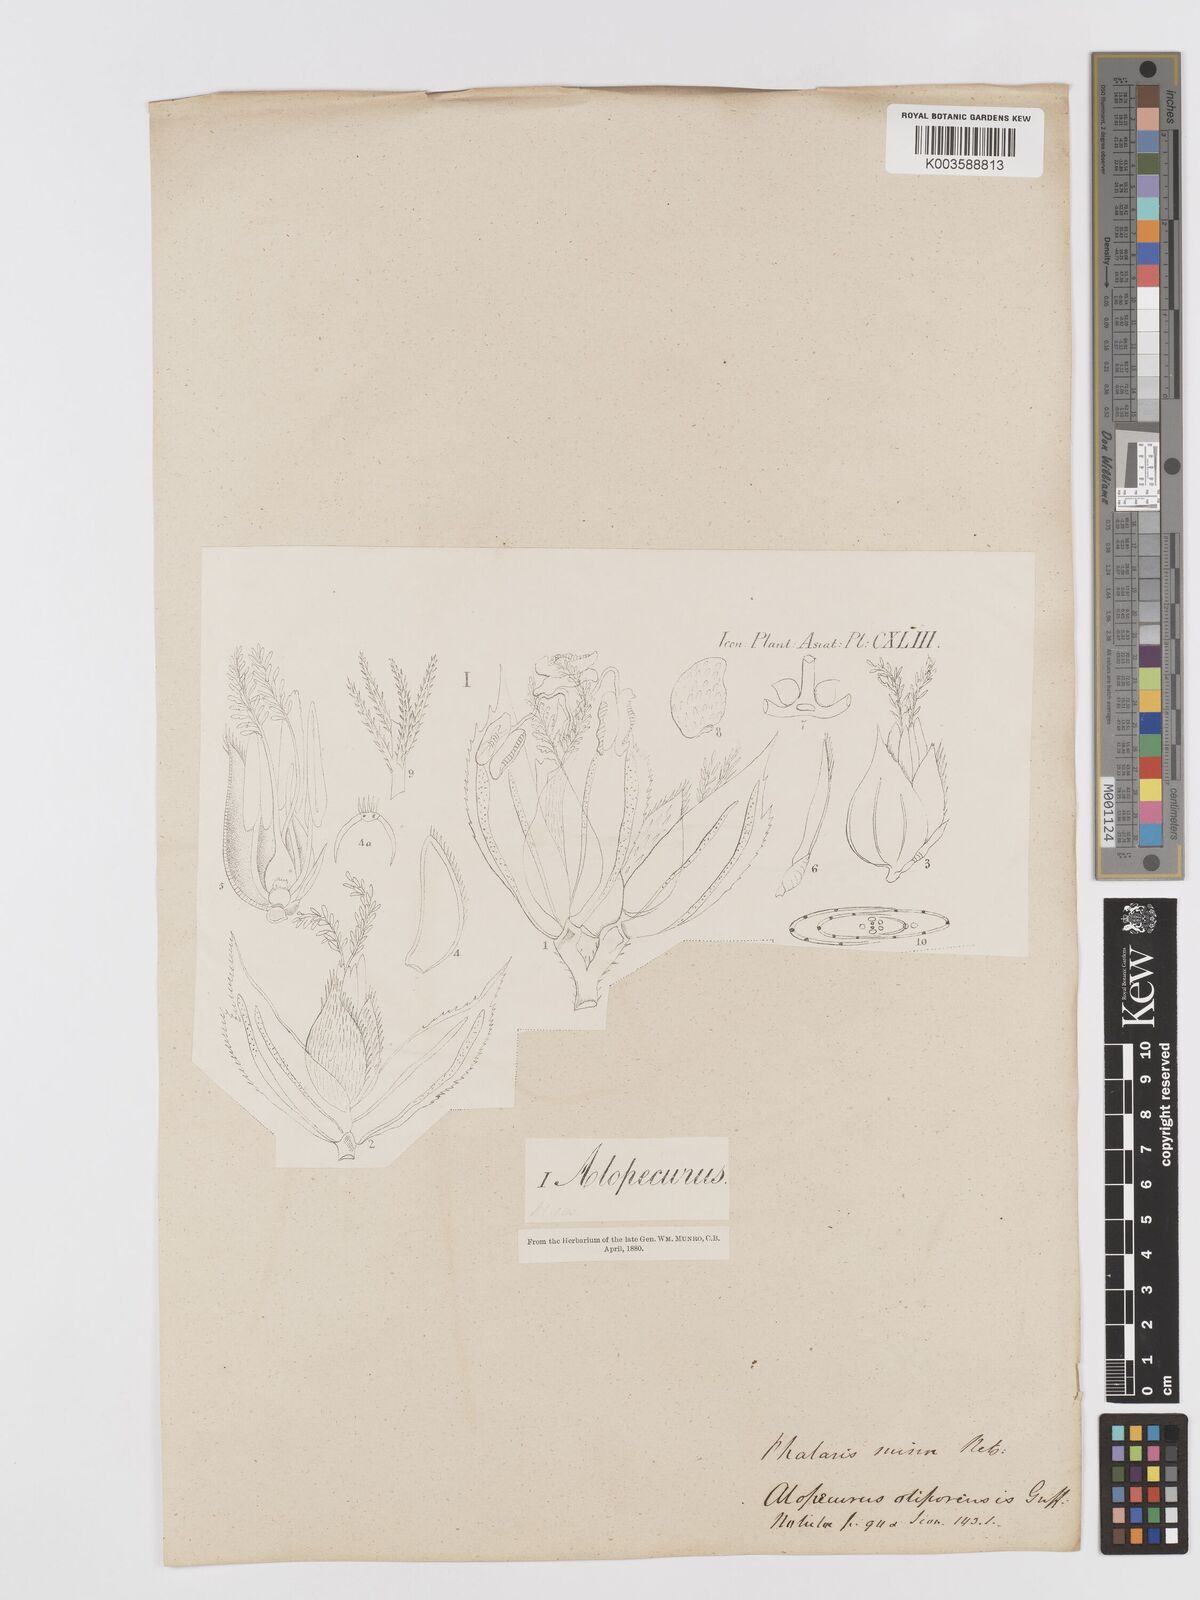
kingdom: Plantae
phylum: Tracheophyta
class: Liliopsida
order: Poales
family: Poaceae
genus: Phalaris
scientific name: Phalaris minor
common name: Littleseed canarygrass
